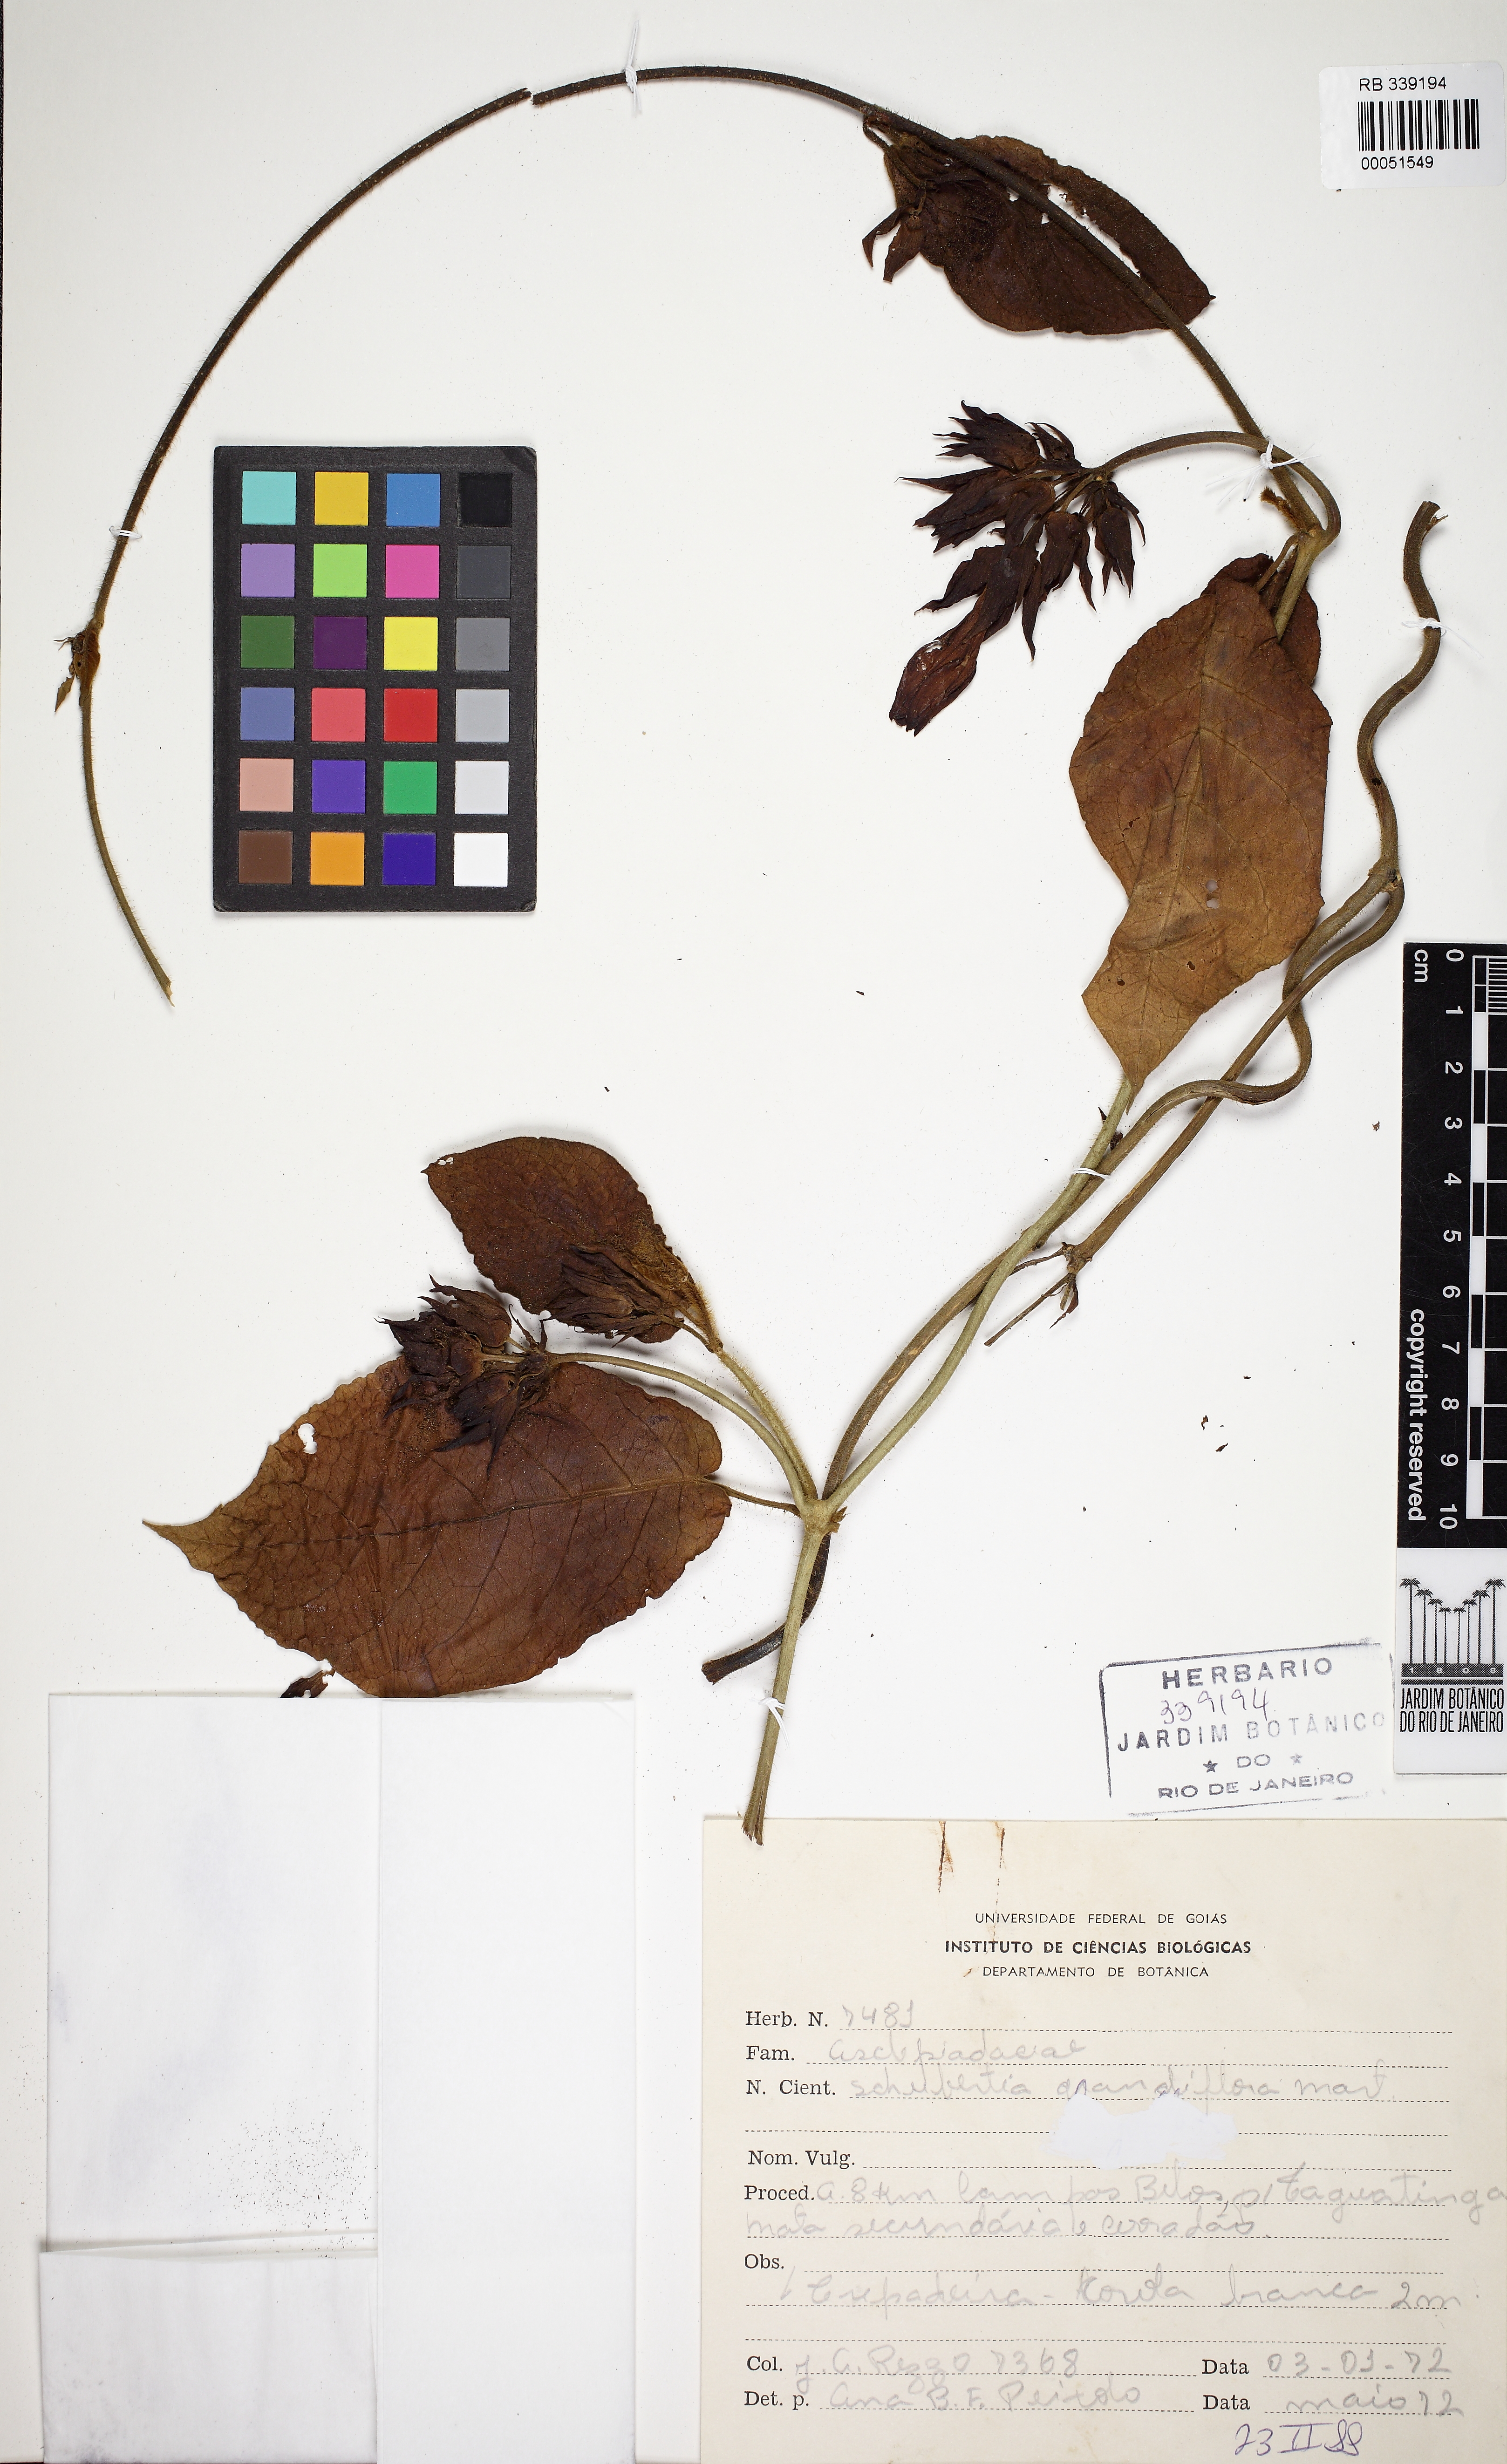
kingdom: Plantae
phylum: Tracheophyta
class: Magnoliopsida
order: Gentianales
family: Apocynaceae
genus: Macroscepis
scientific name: Macroscepis grandiflora
